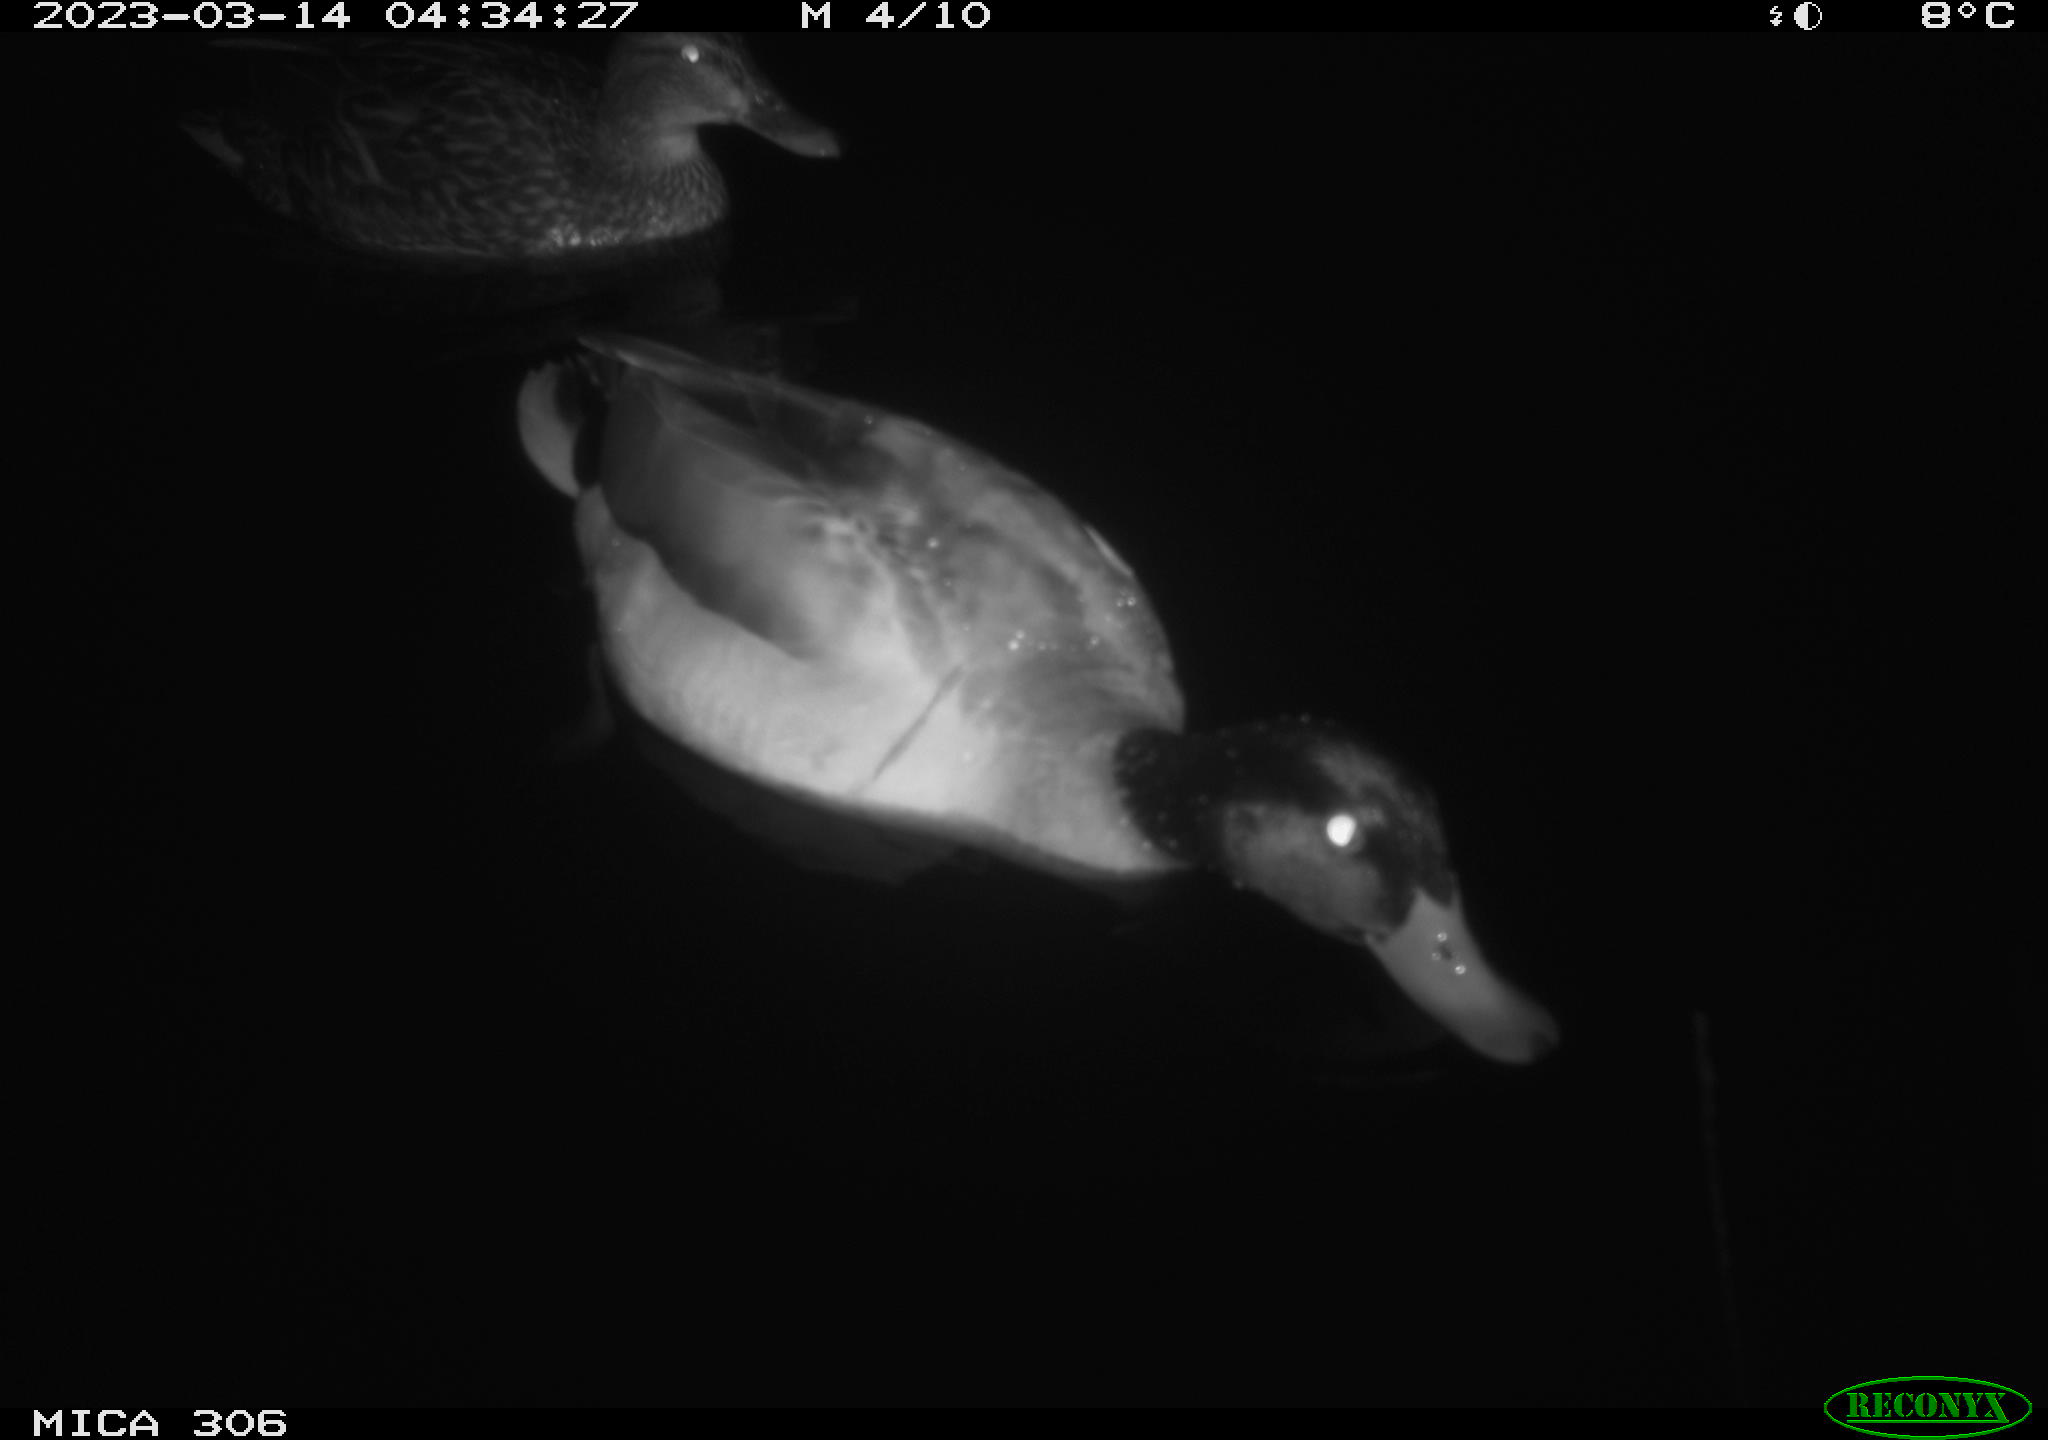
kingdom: Animalia
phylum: Chordata
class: Aves
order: Anseriformes
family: Anatidae
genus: Anas
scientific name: Anas
